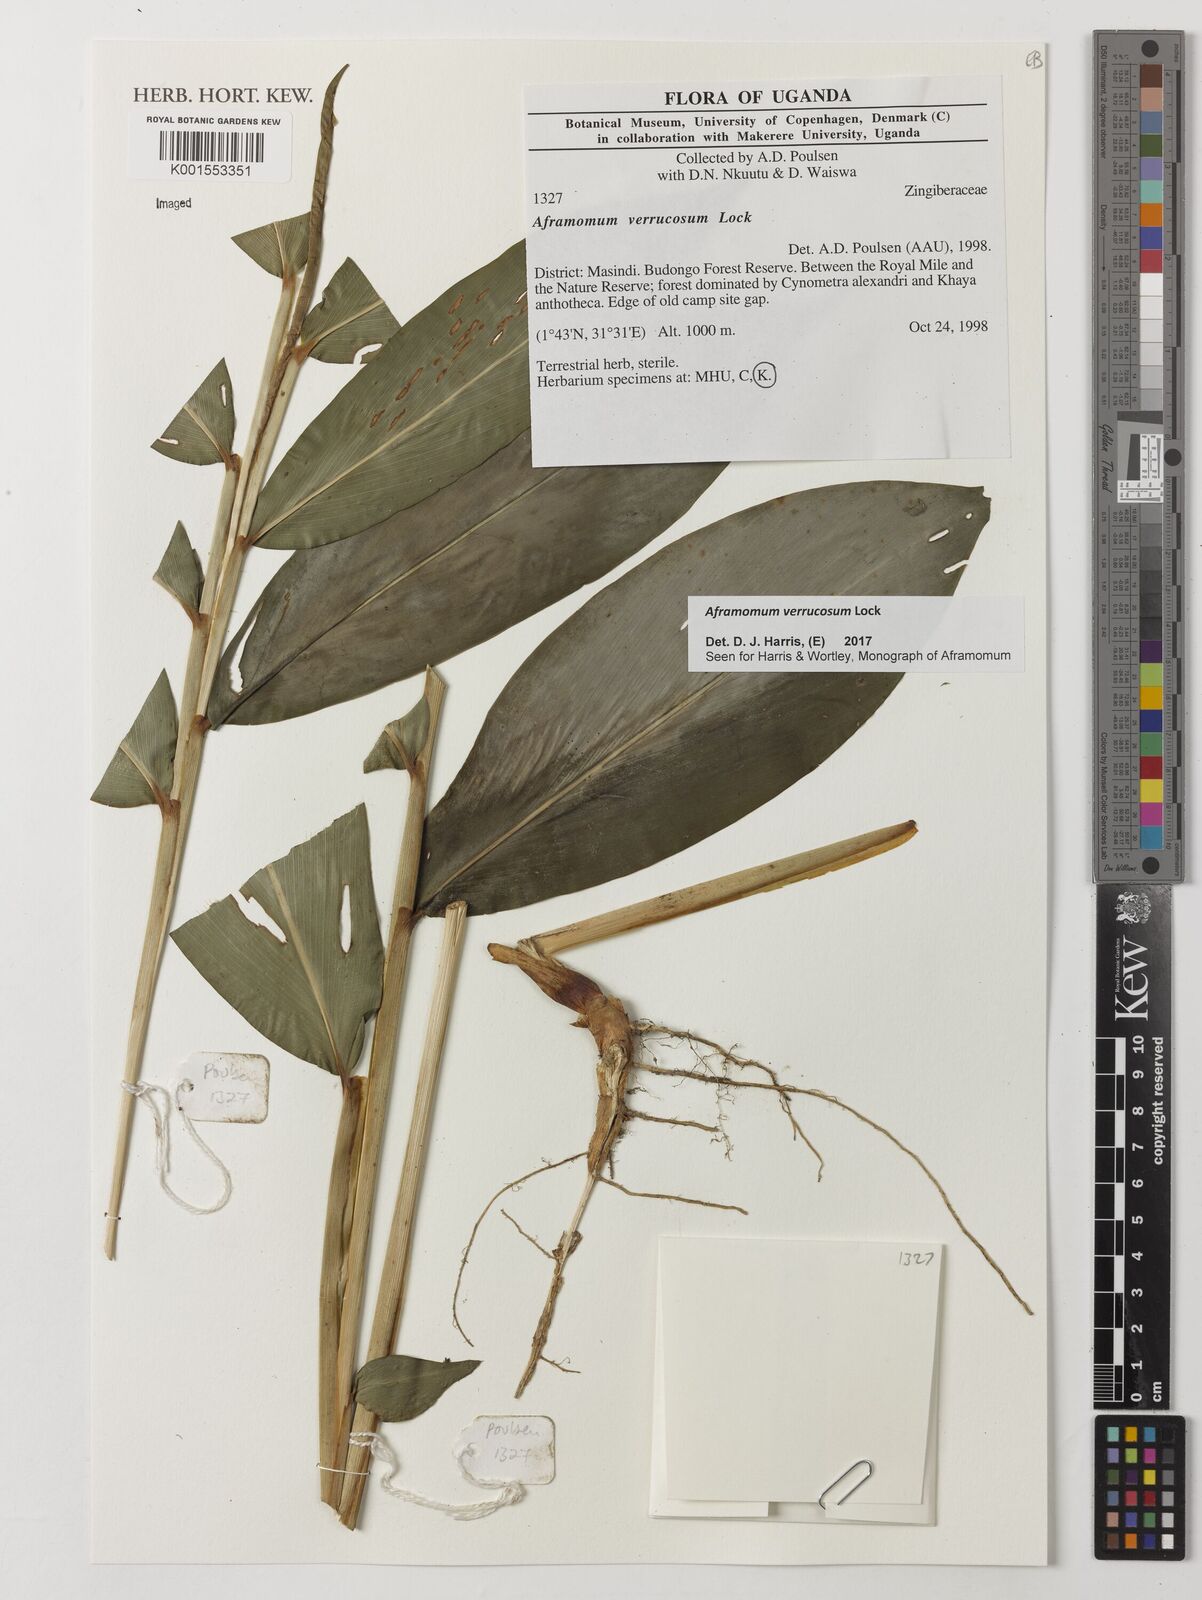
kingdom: Plantae
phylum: Tracheophyta
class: Liliopsida
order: Zingiberales
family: Zingiberaceae
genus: Aframomum
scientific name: Aframomum verrucosum
